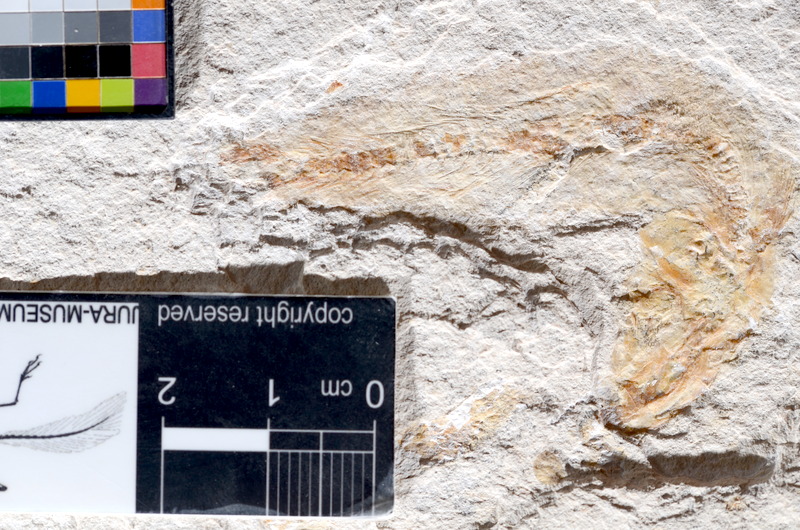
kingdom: Animalia
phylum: Chordata
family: Ascalaboidae
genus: Tharsis
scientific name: Tharsis dubius
